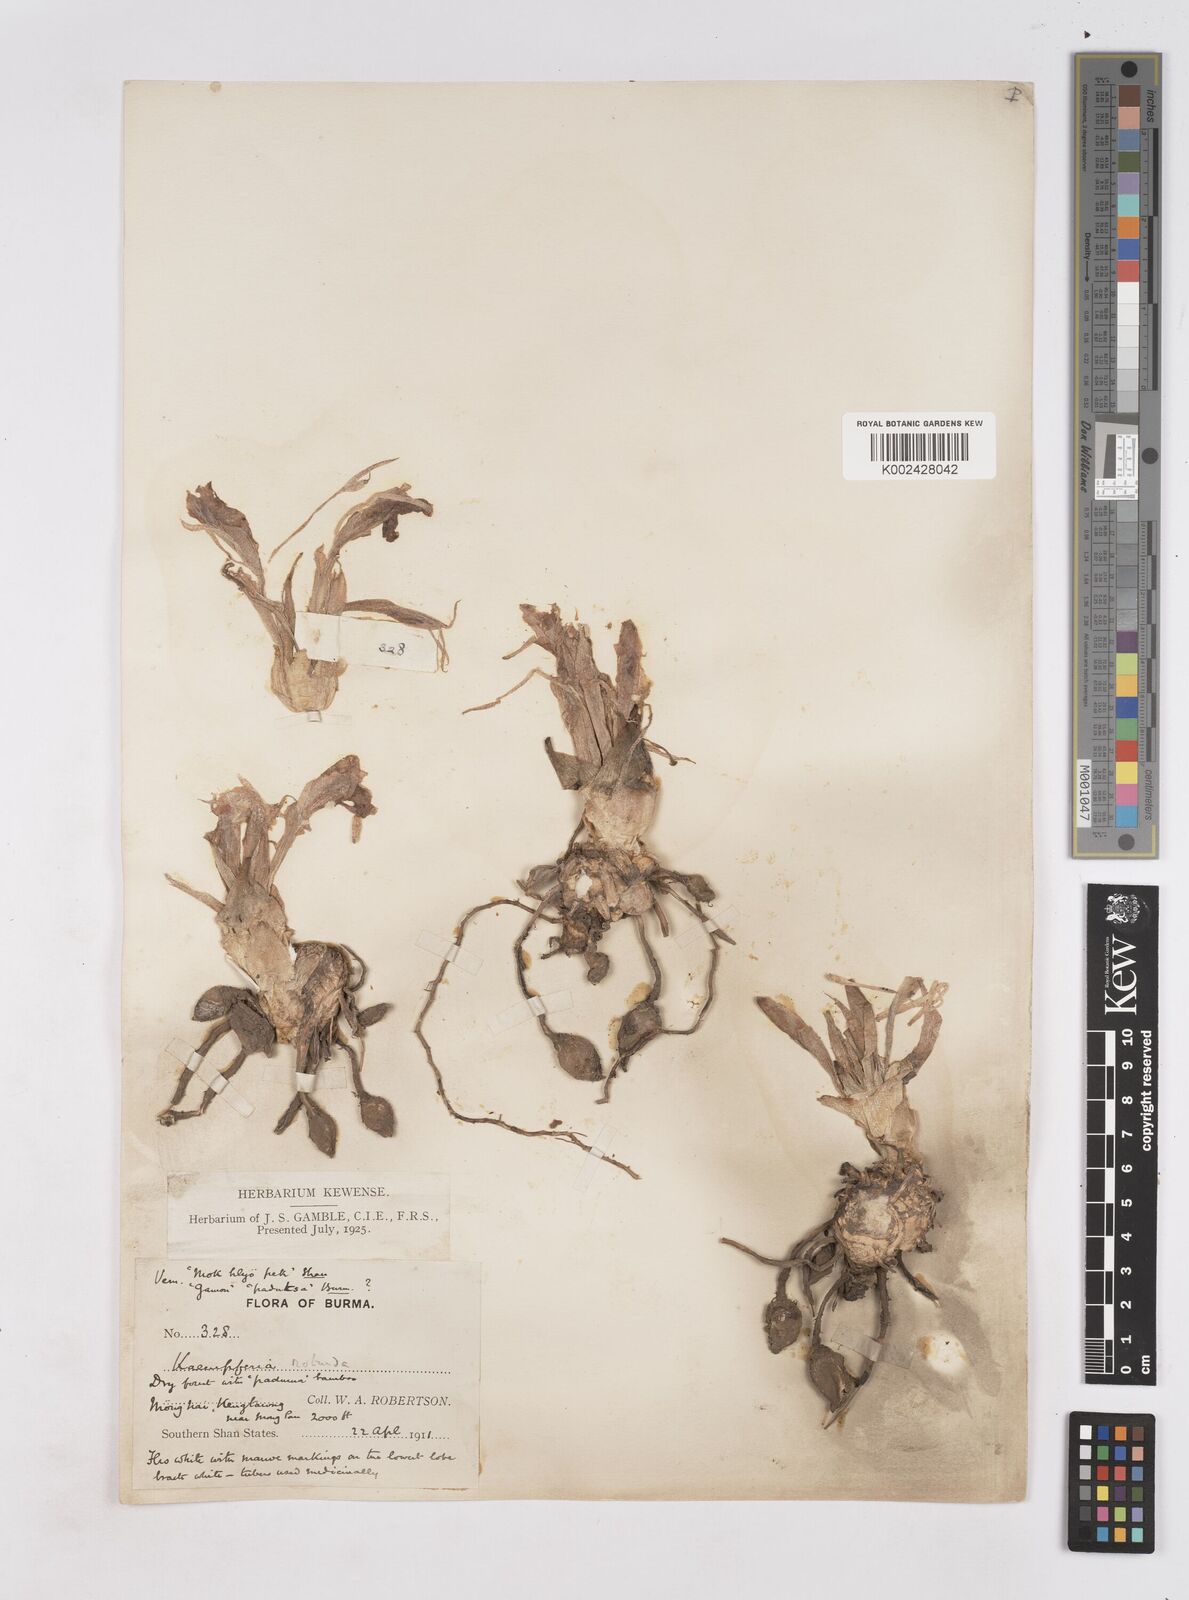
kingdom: Plantae
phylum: Tracheophyta
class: Liliopsida
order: Zingiberales
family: Zingiberaceae
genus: Kaempferia
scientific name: Kaempferia rotunda
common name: Tropical-crocus
